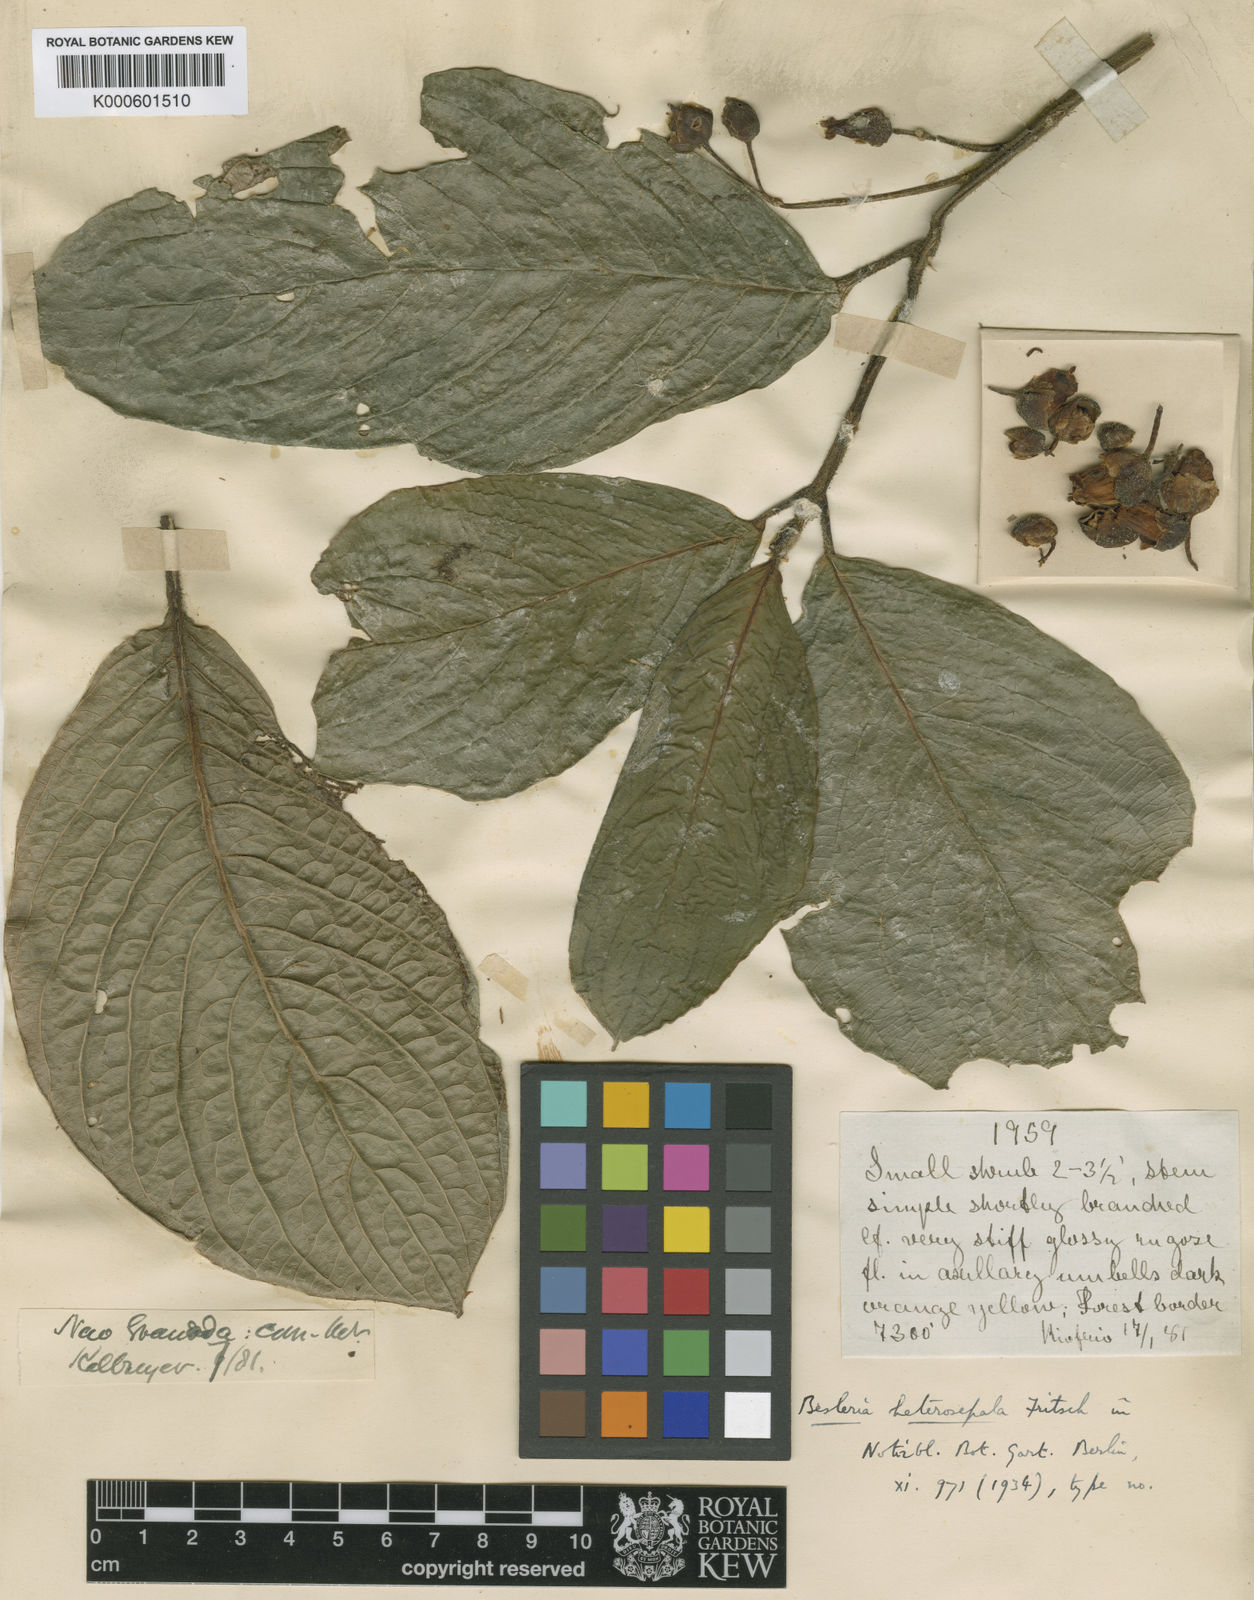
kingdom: Plantae
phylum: Tracheophyta
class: Magnoliopsida
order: Lamiales
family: Gesneriaceae
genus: Besleria
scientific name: Besleria heterosepala
